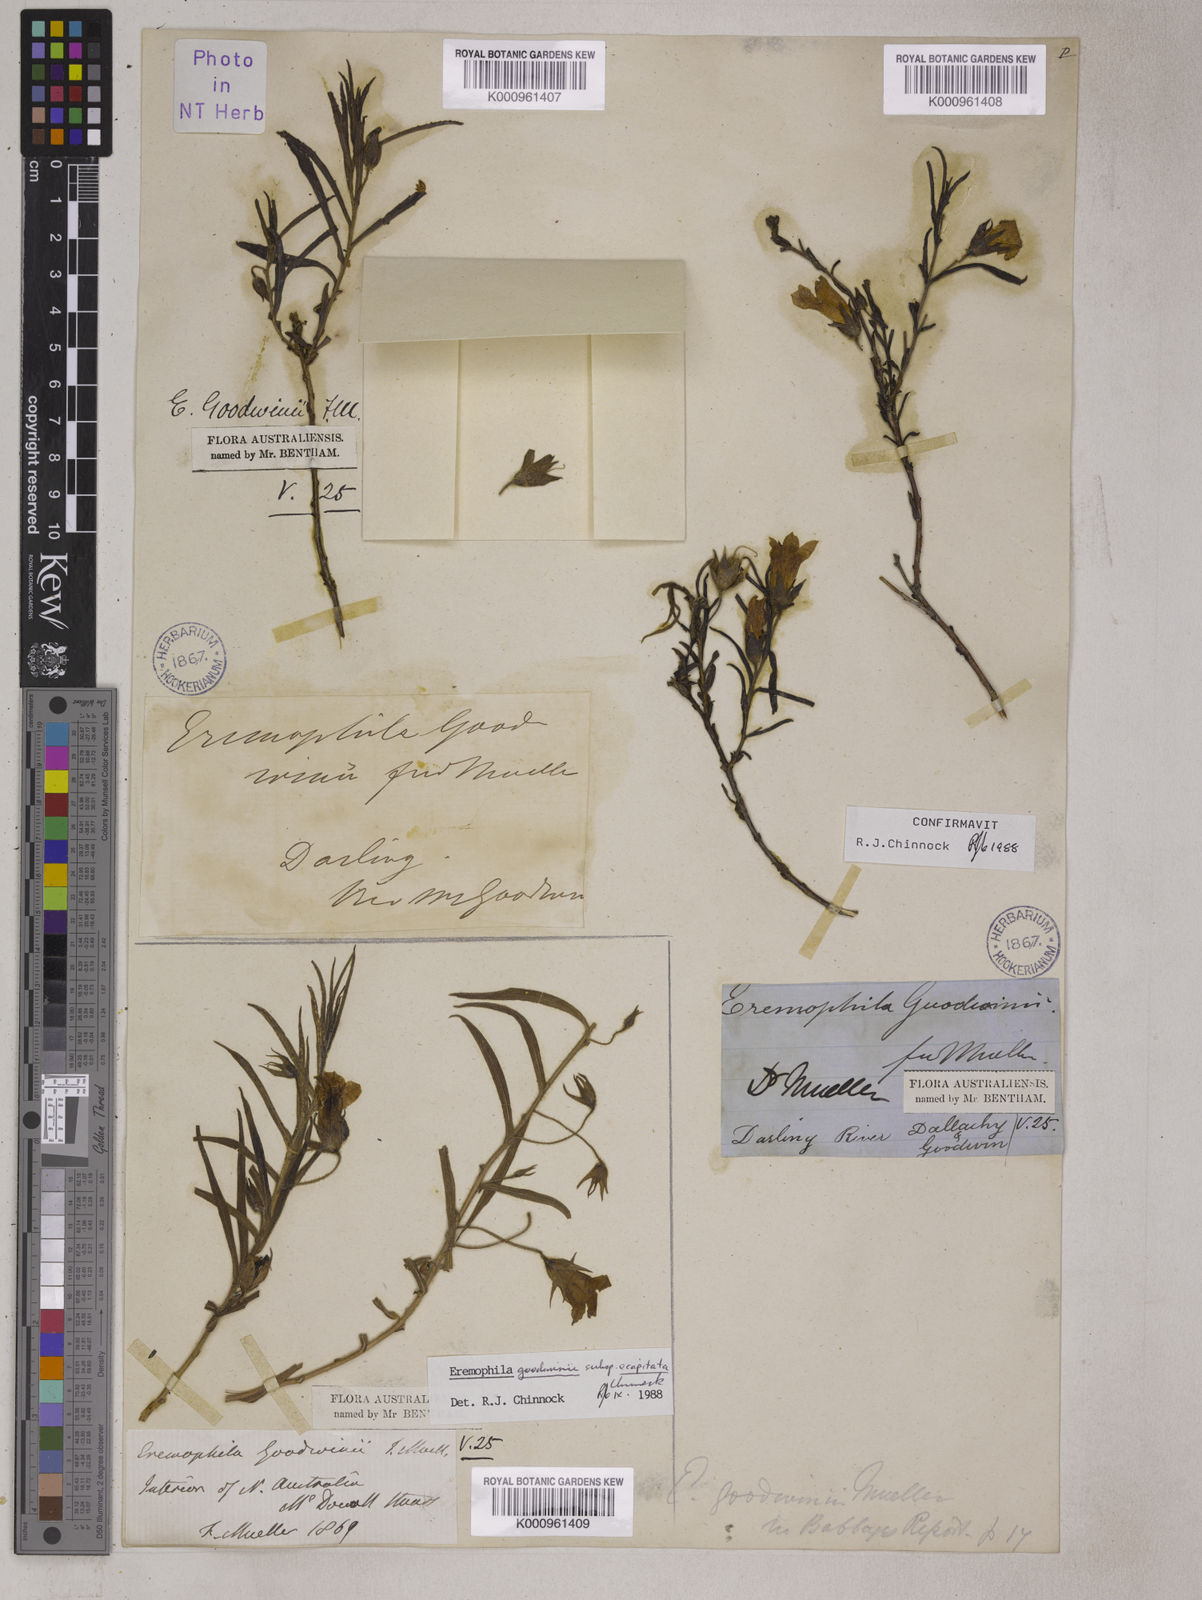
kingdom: Plantae
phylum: Tracheophyta
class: Magnoliopsida
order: Lamiales
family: Scrophulariaceae
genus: Eremophila
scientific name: Eremophila goodwinii
